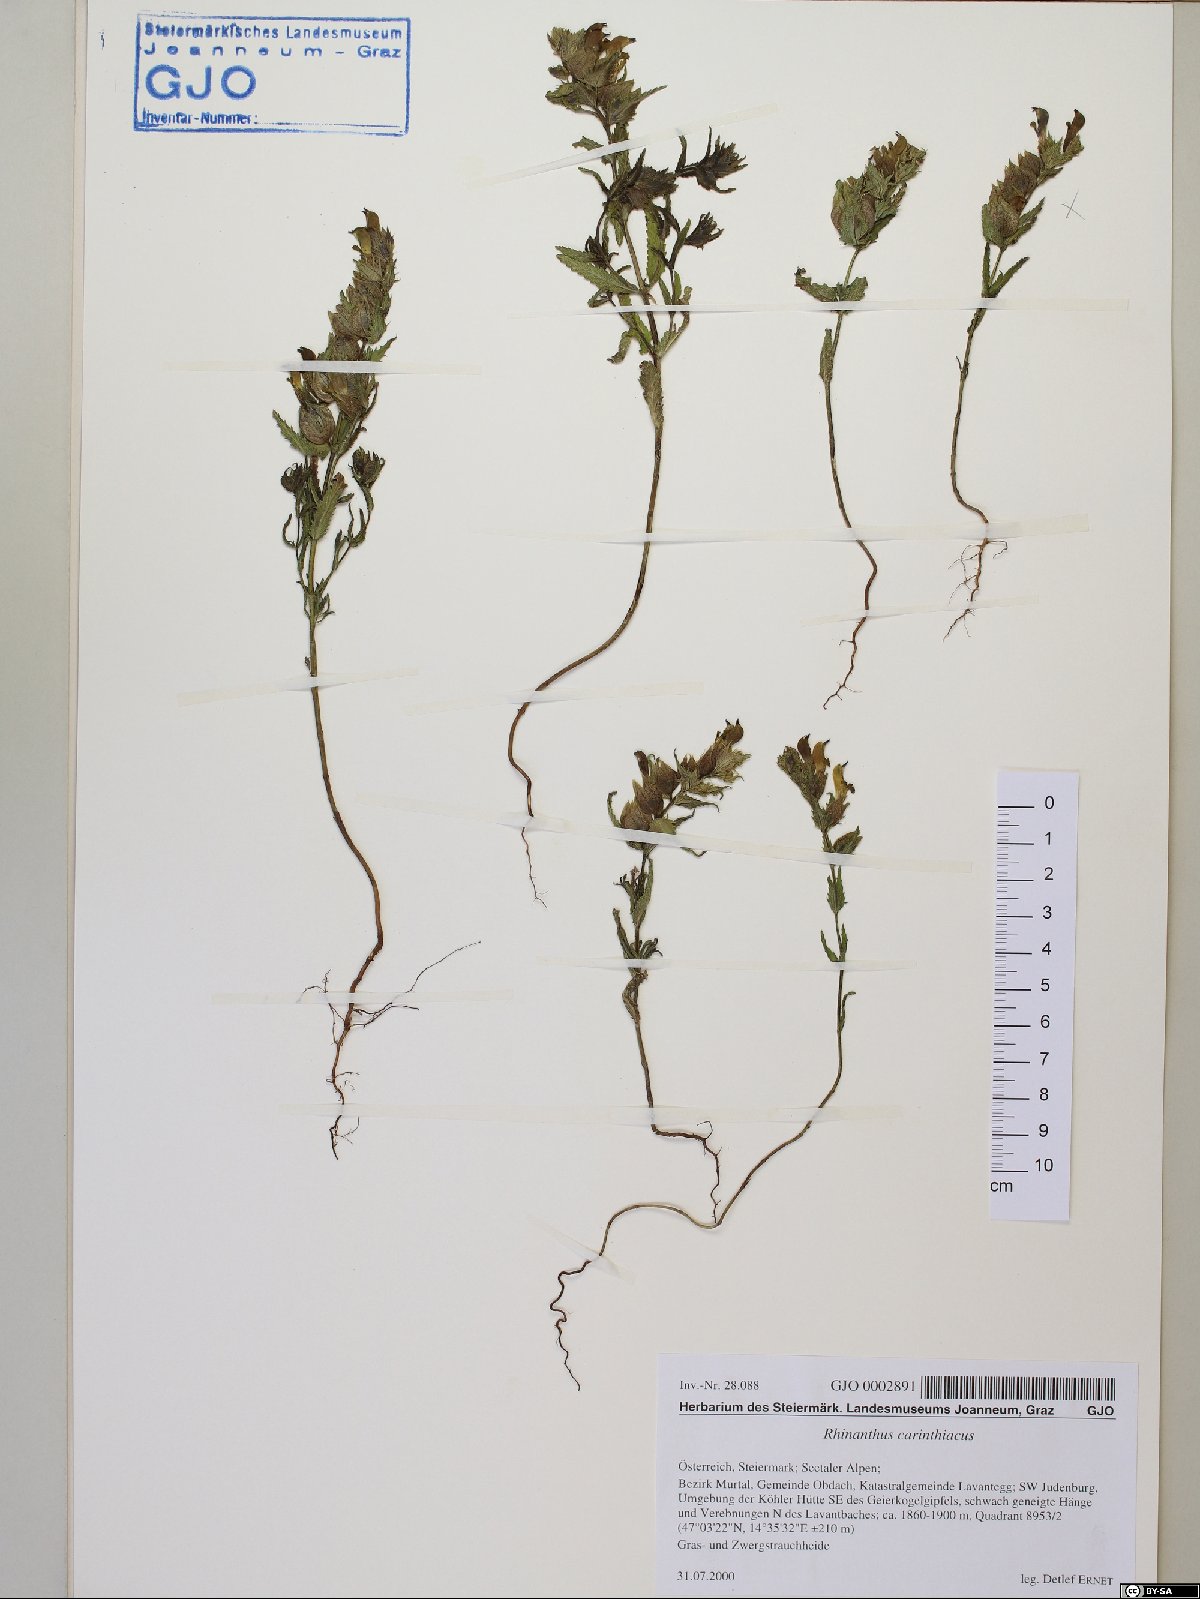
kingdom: Plantae
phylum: Tracheophyta
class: Magnoliopsida
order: Lamiales
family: Orobanchaceae
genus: Rhinanthus
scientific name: Rhinanthus carinthiacus
